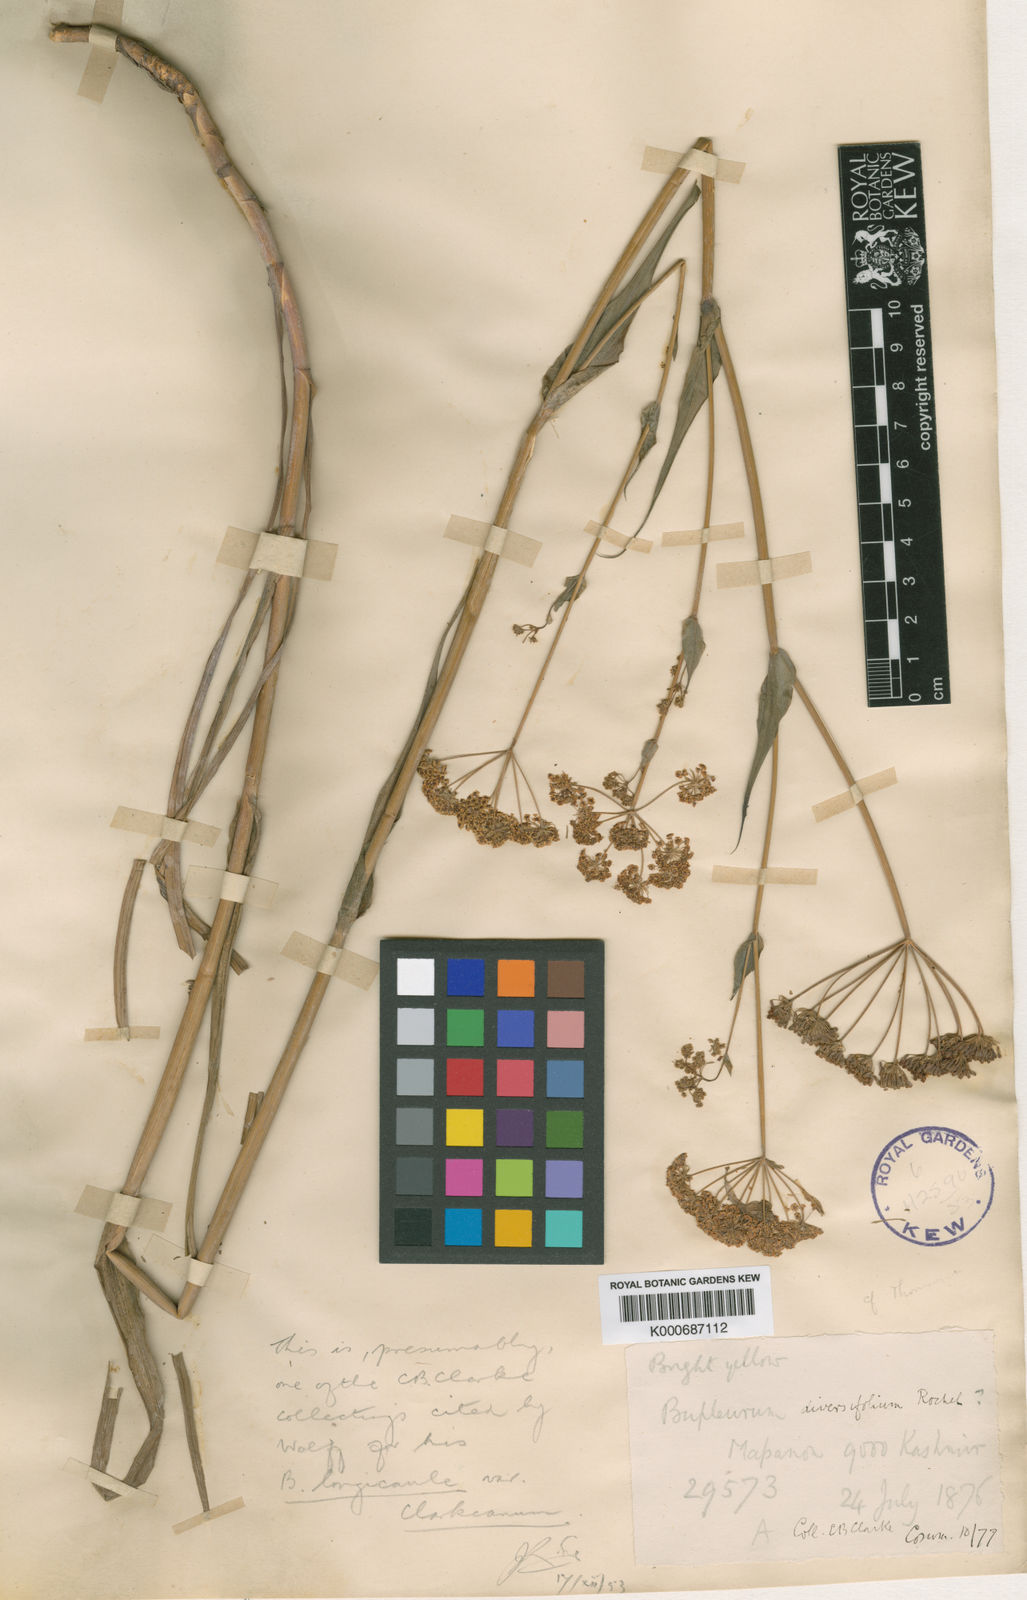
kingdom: Plantae
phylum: Tracheophyta
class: Magnoliopsida
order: Apiales
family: Apiaceae
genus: Bupleurum
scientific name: Bupleurum longicaule
